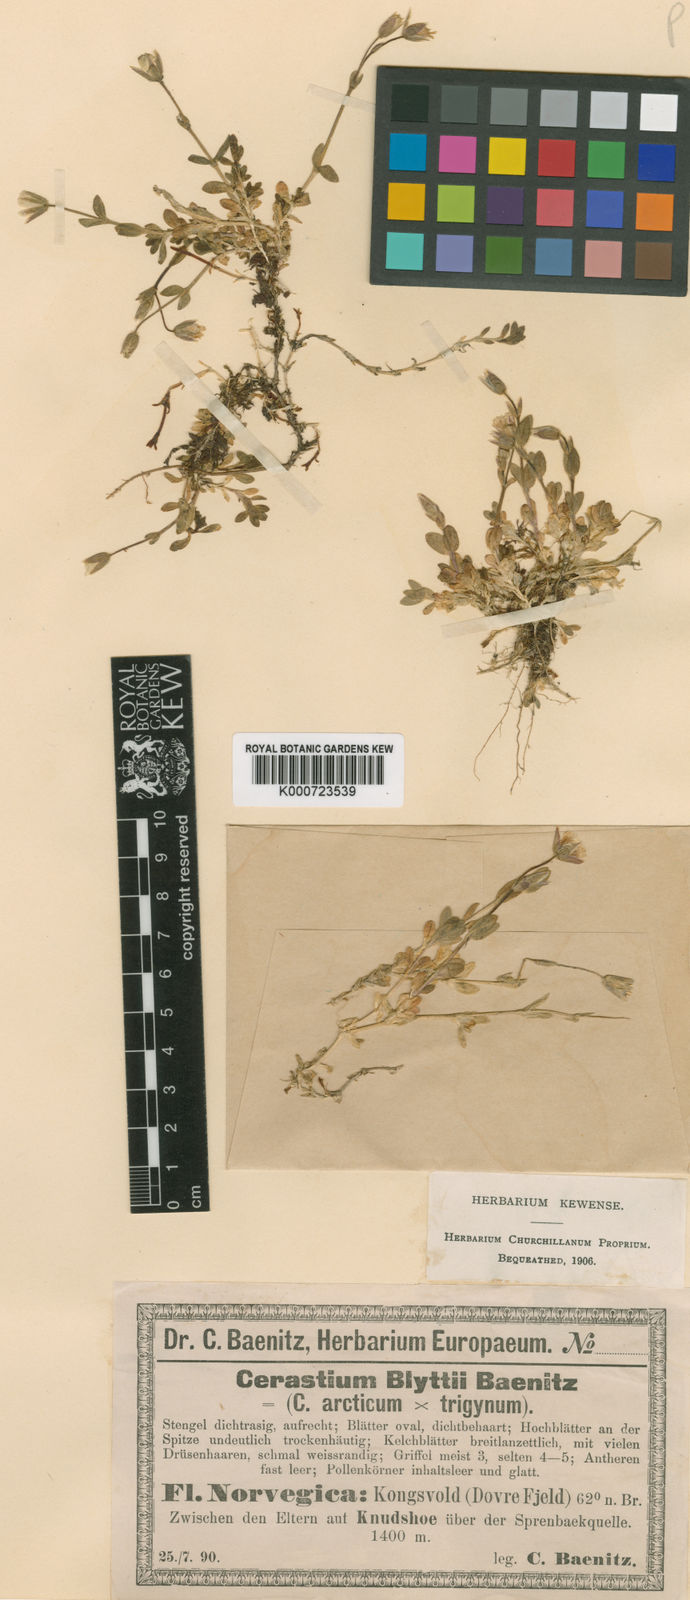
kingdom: Plantae
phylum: Tracheophyta
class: Magnoliopsida
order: Caryophyllales
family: Caryophyllaceae
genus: Cerastium
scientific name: Cerastium blyttii
